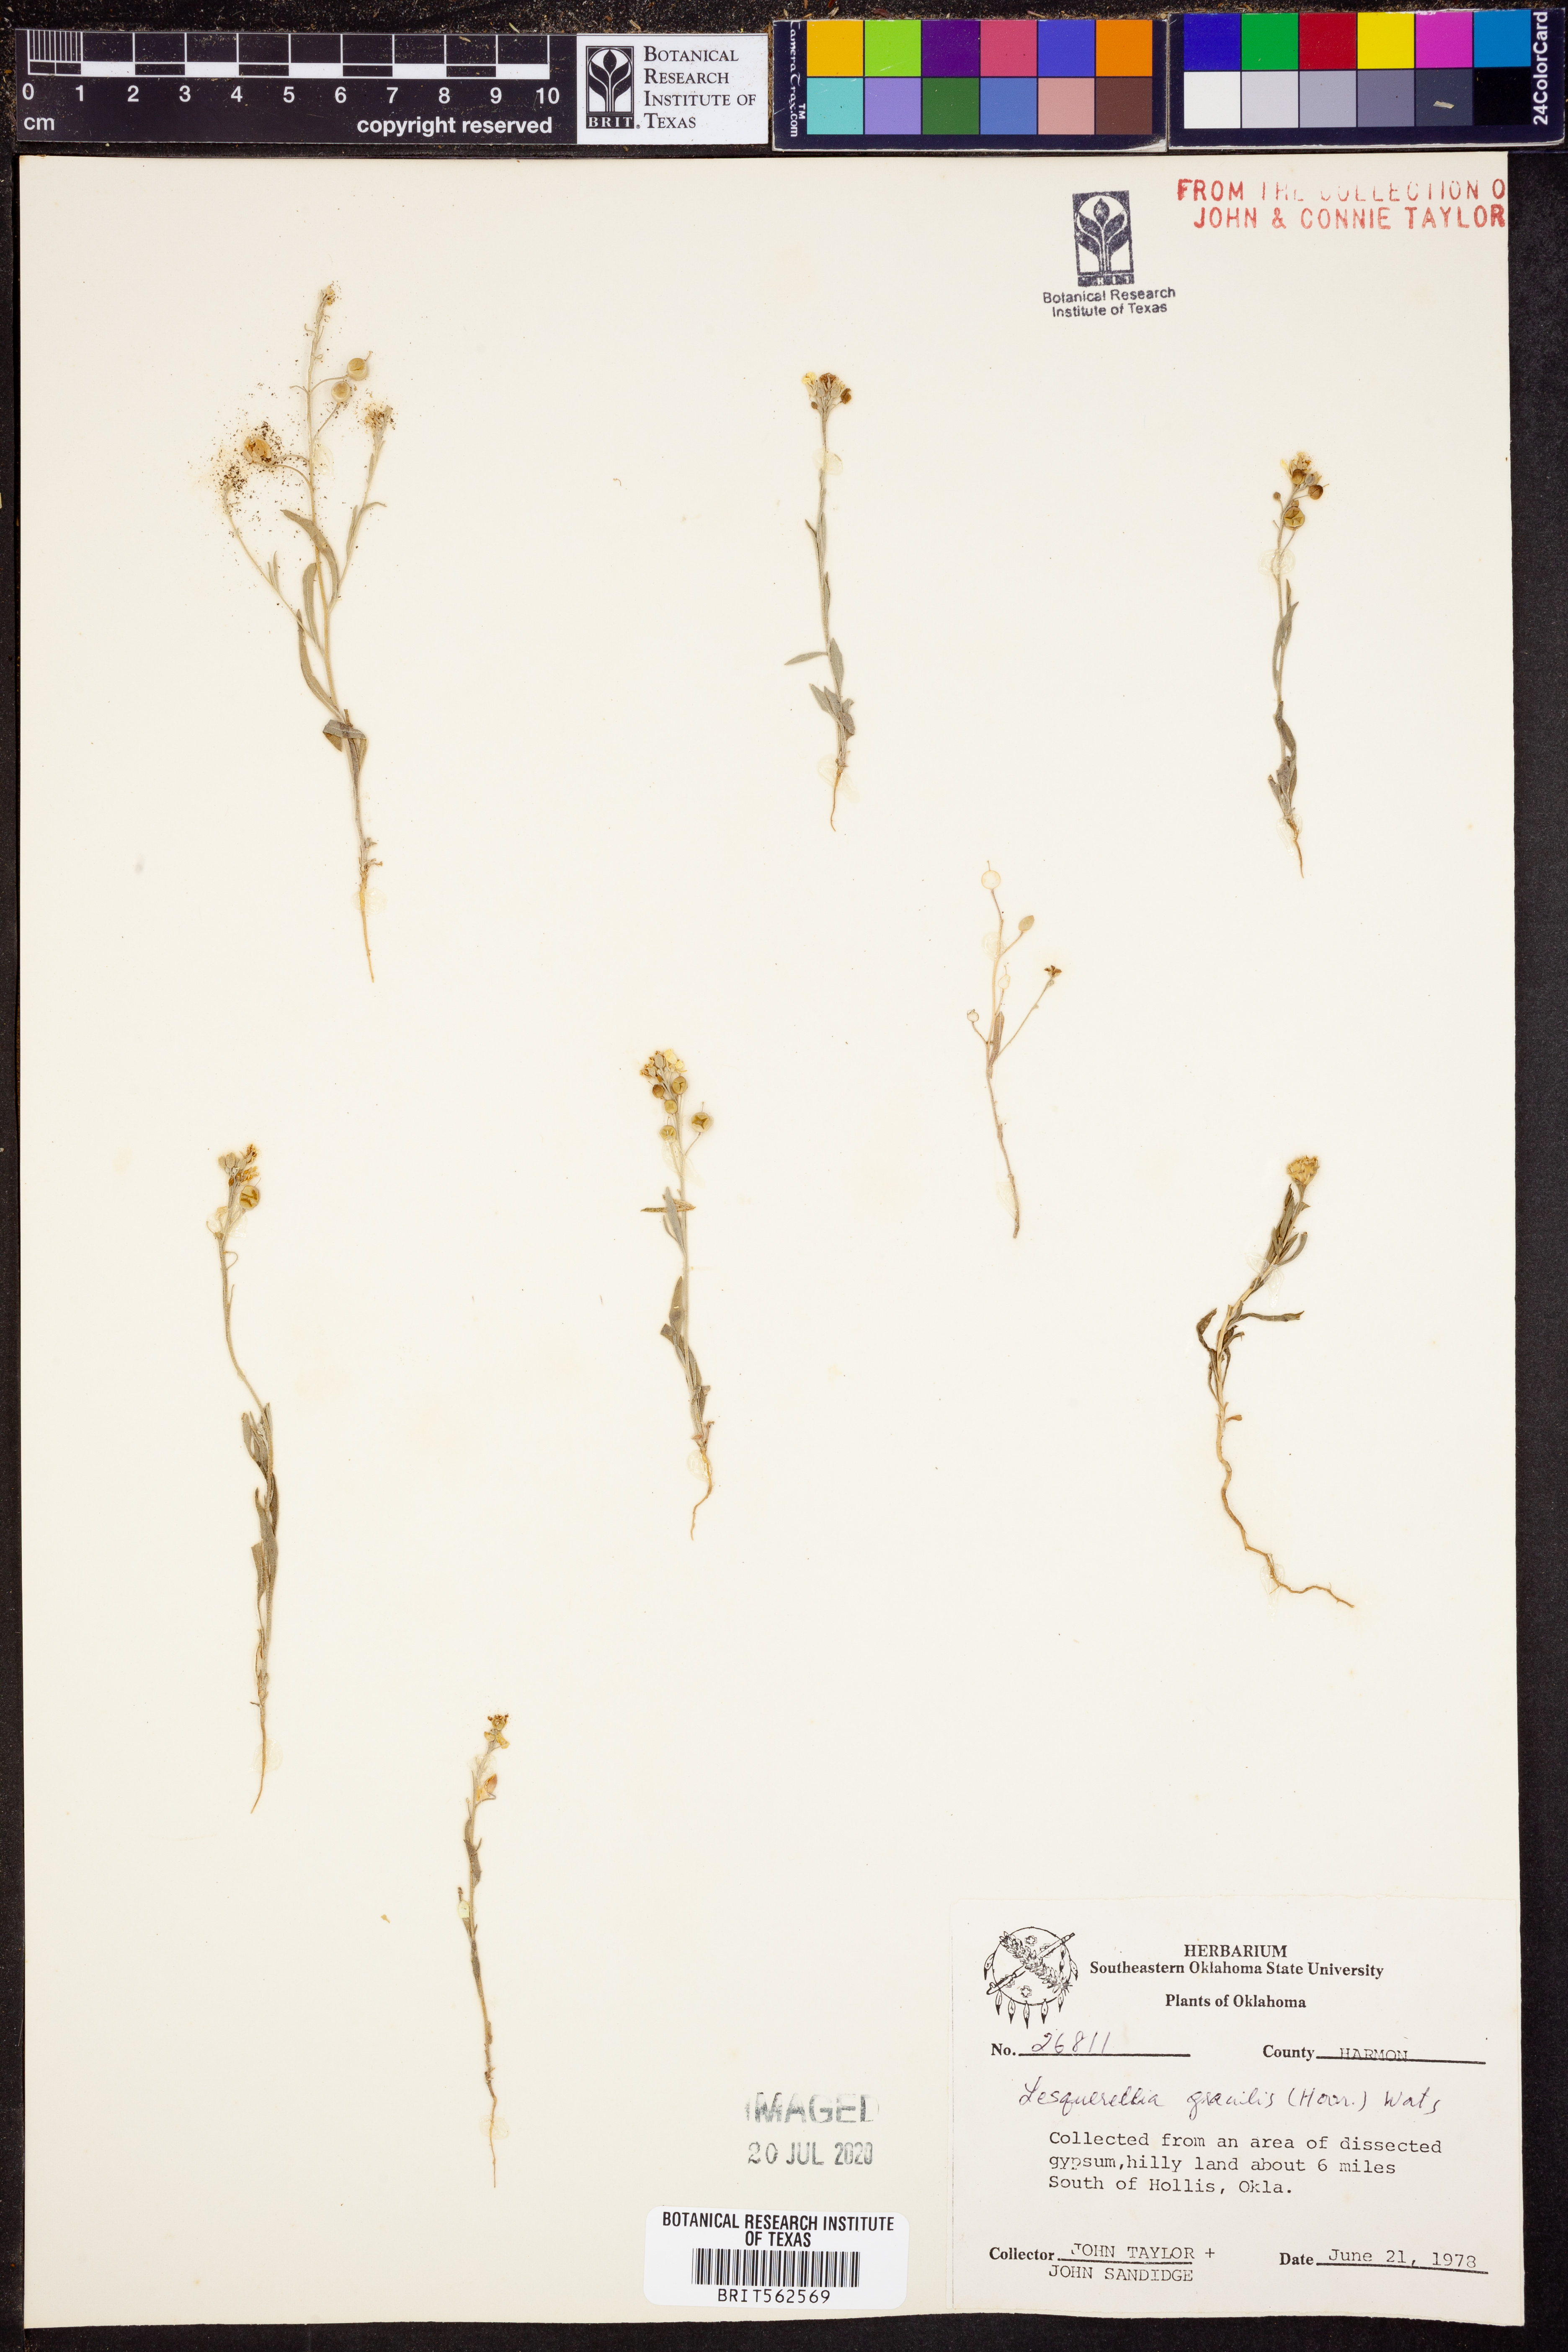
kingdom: Plantae
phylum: Tracheophyta
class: Magnoliopsida
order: Brassicales
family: Brassicaceae
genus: Physaria
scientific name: Physaria gracilis
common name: Spreading bladderpod
